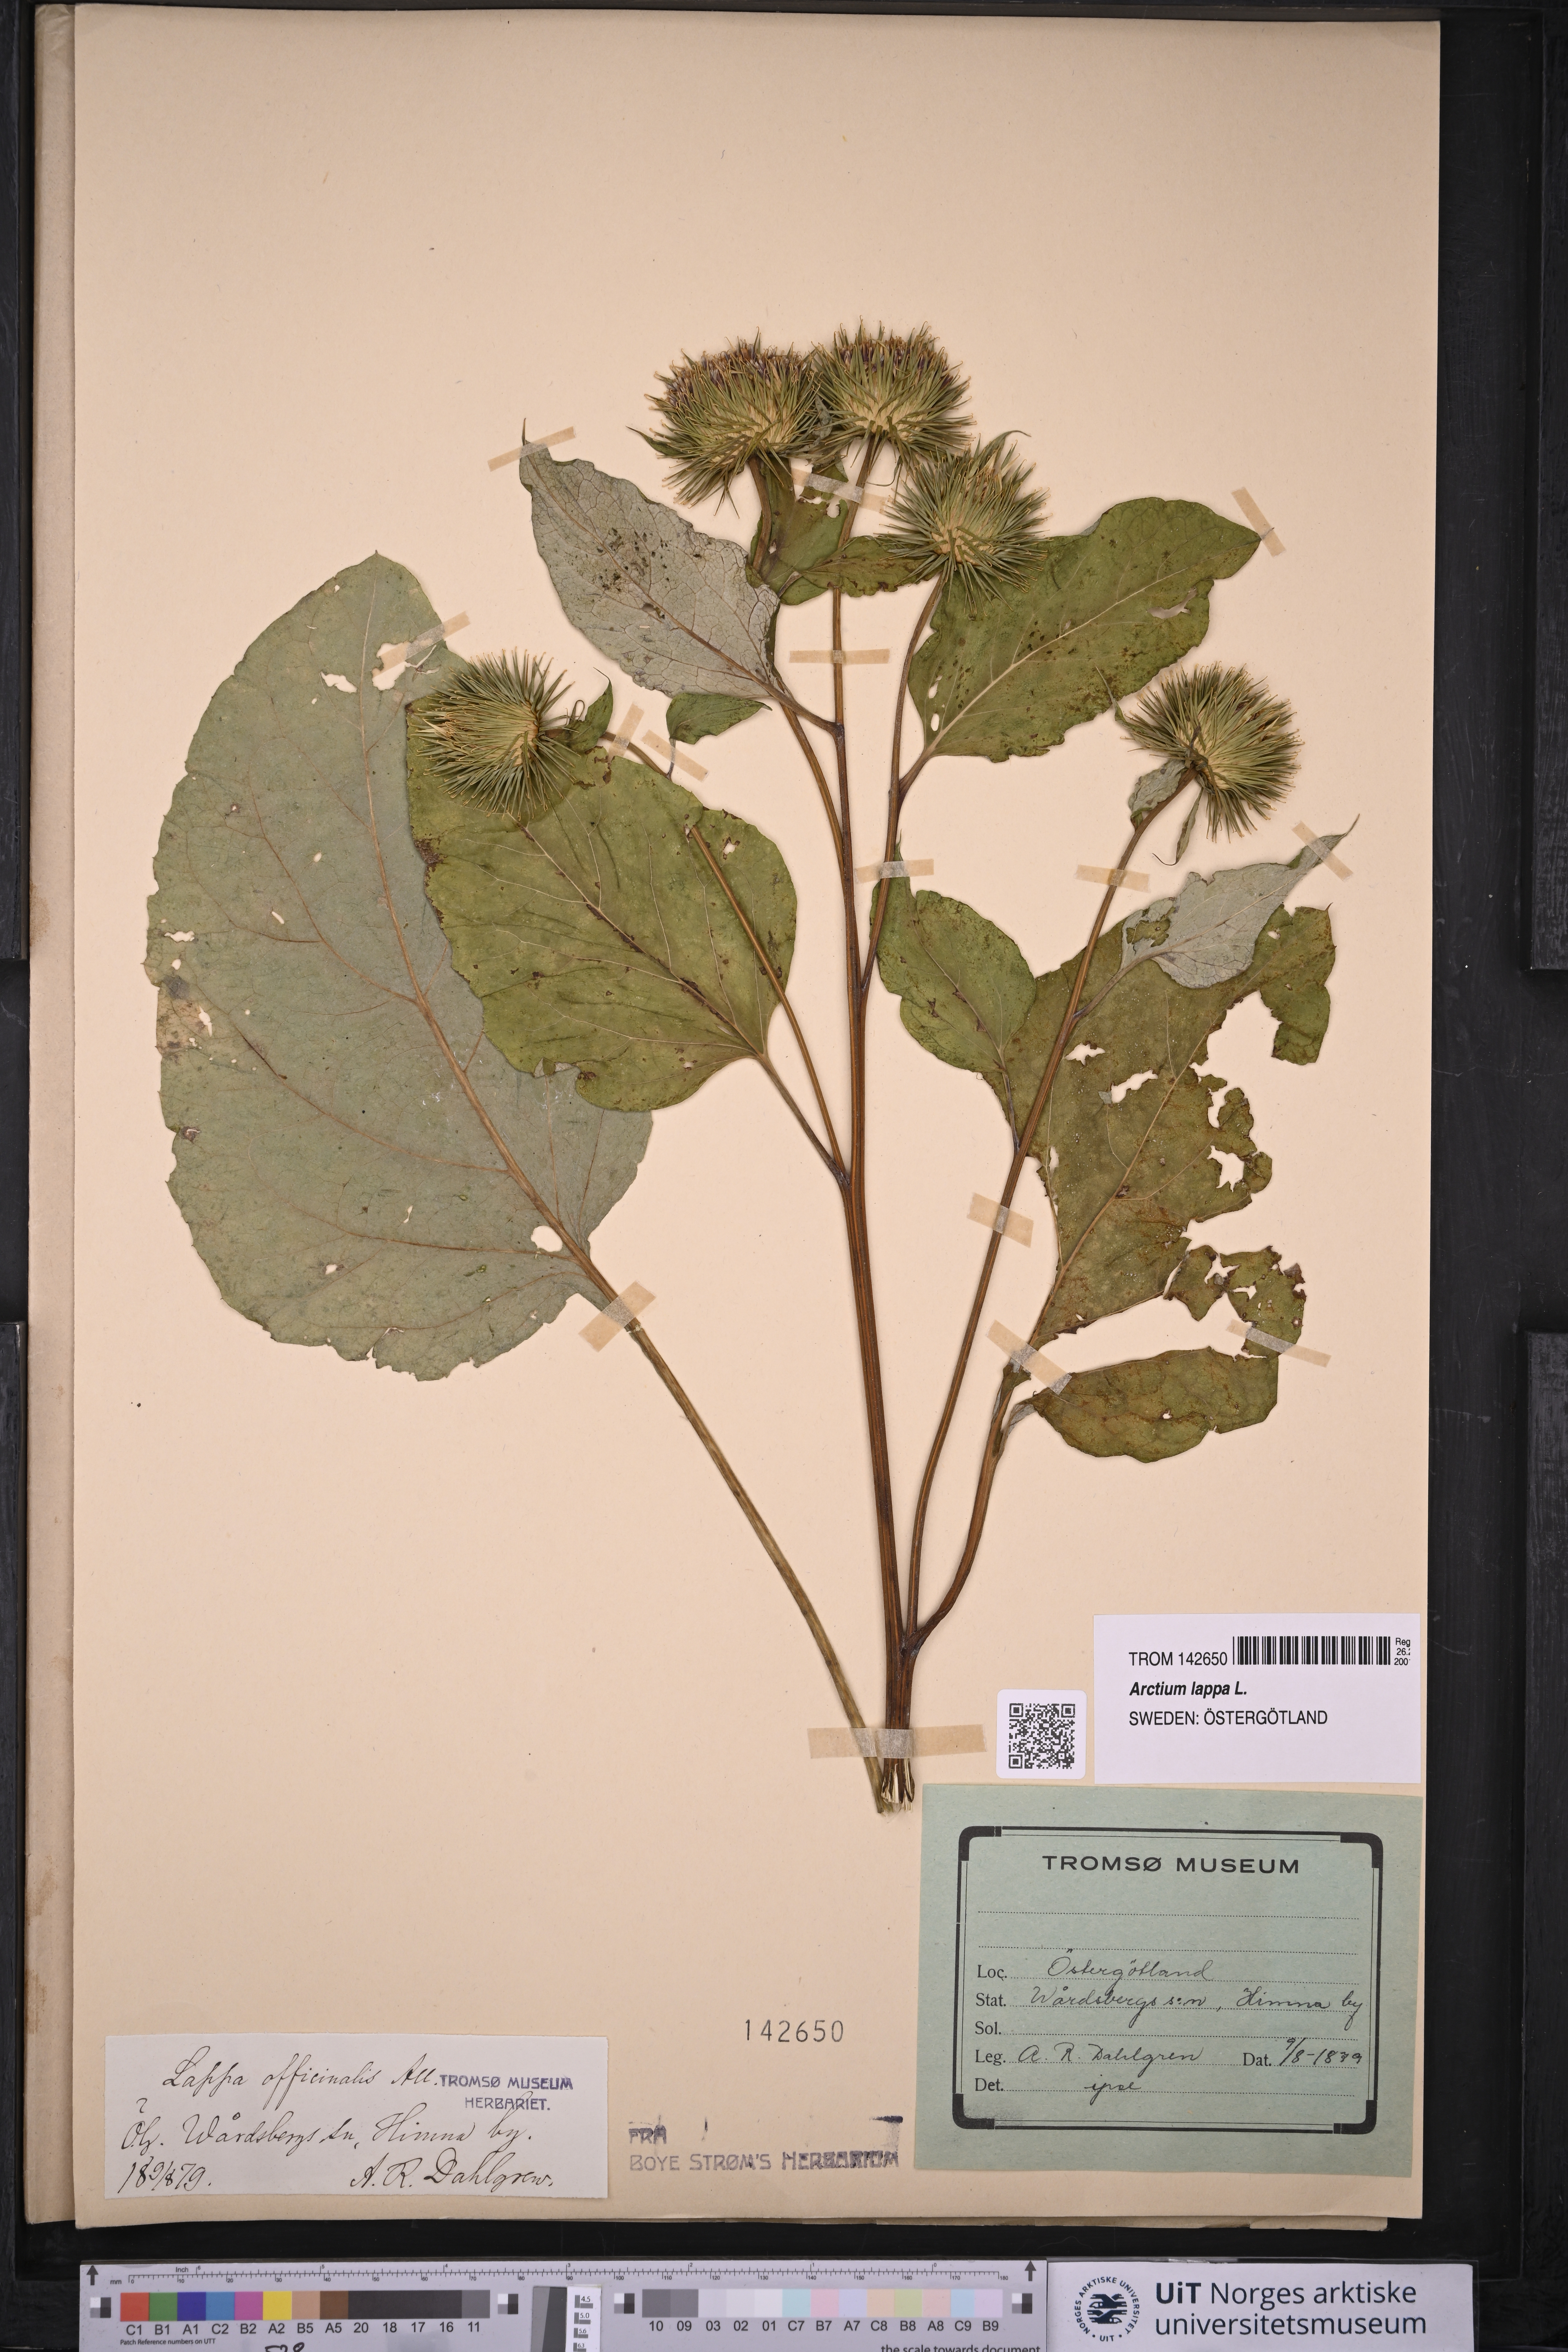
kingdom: Plantae
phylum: Tracheophyta
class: Magnoliopsida
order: Asterales
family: Asteraceae
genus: Arctium
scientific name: Arctium lappa
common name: Greater burdock
